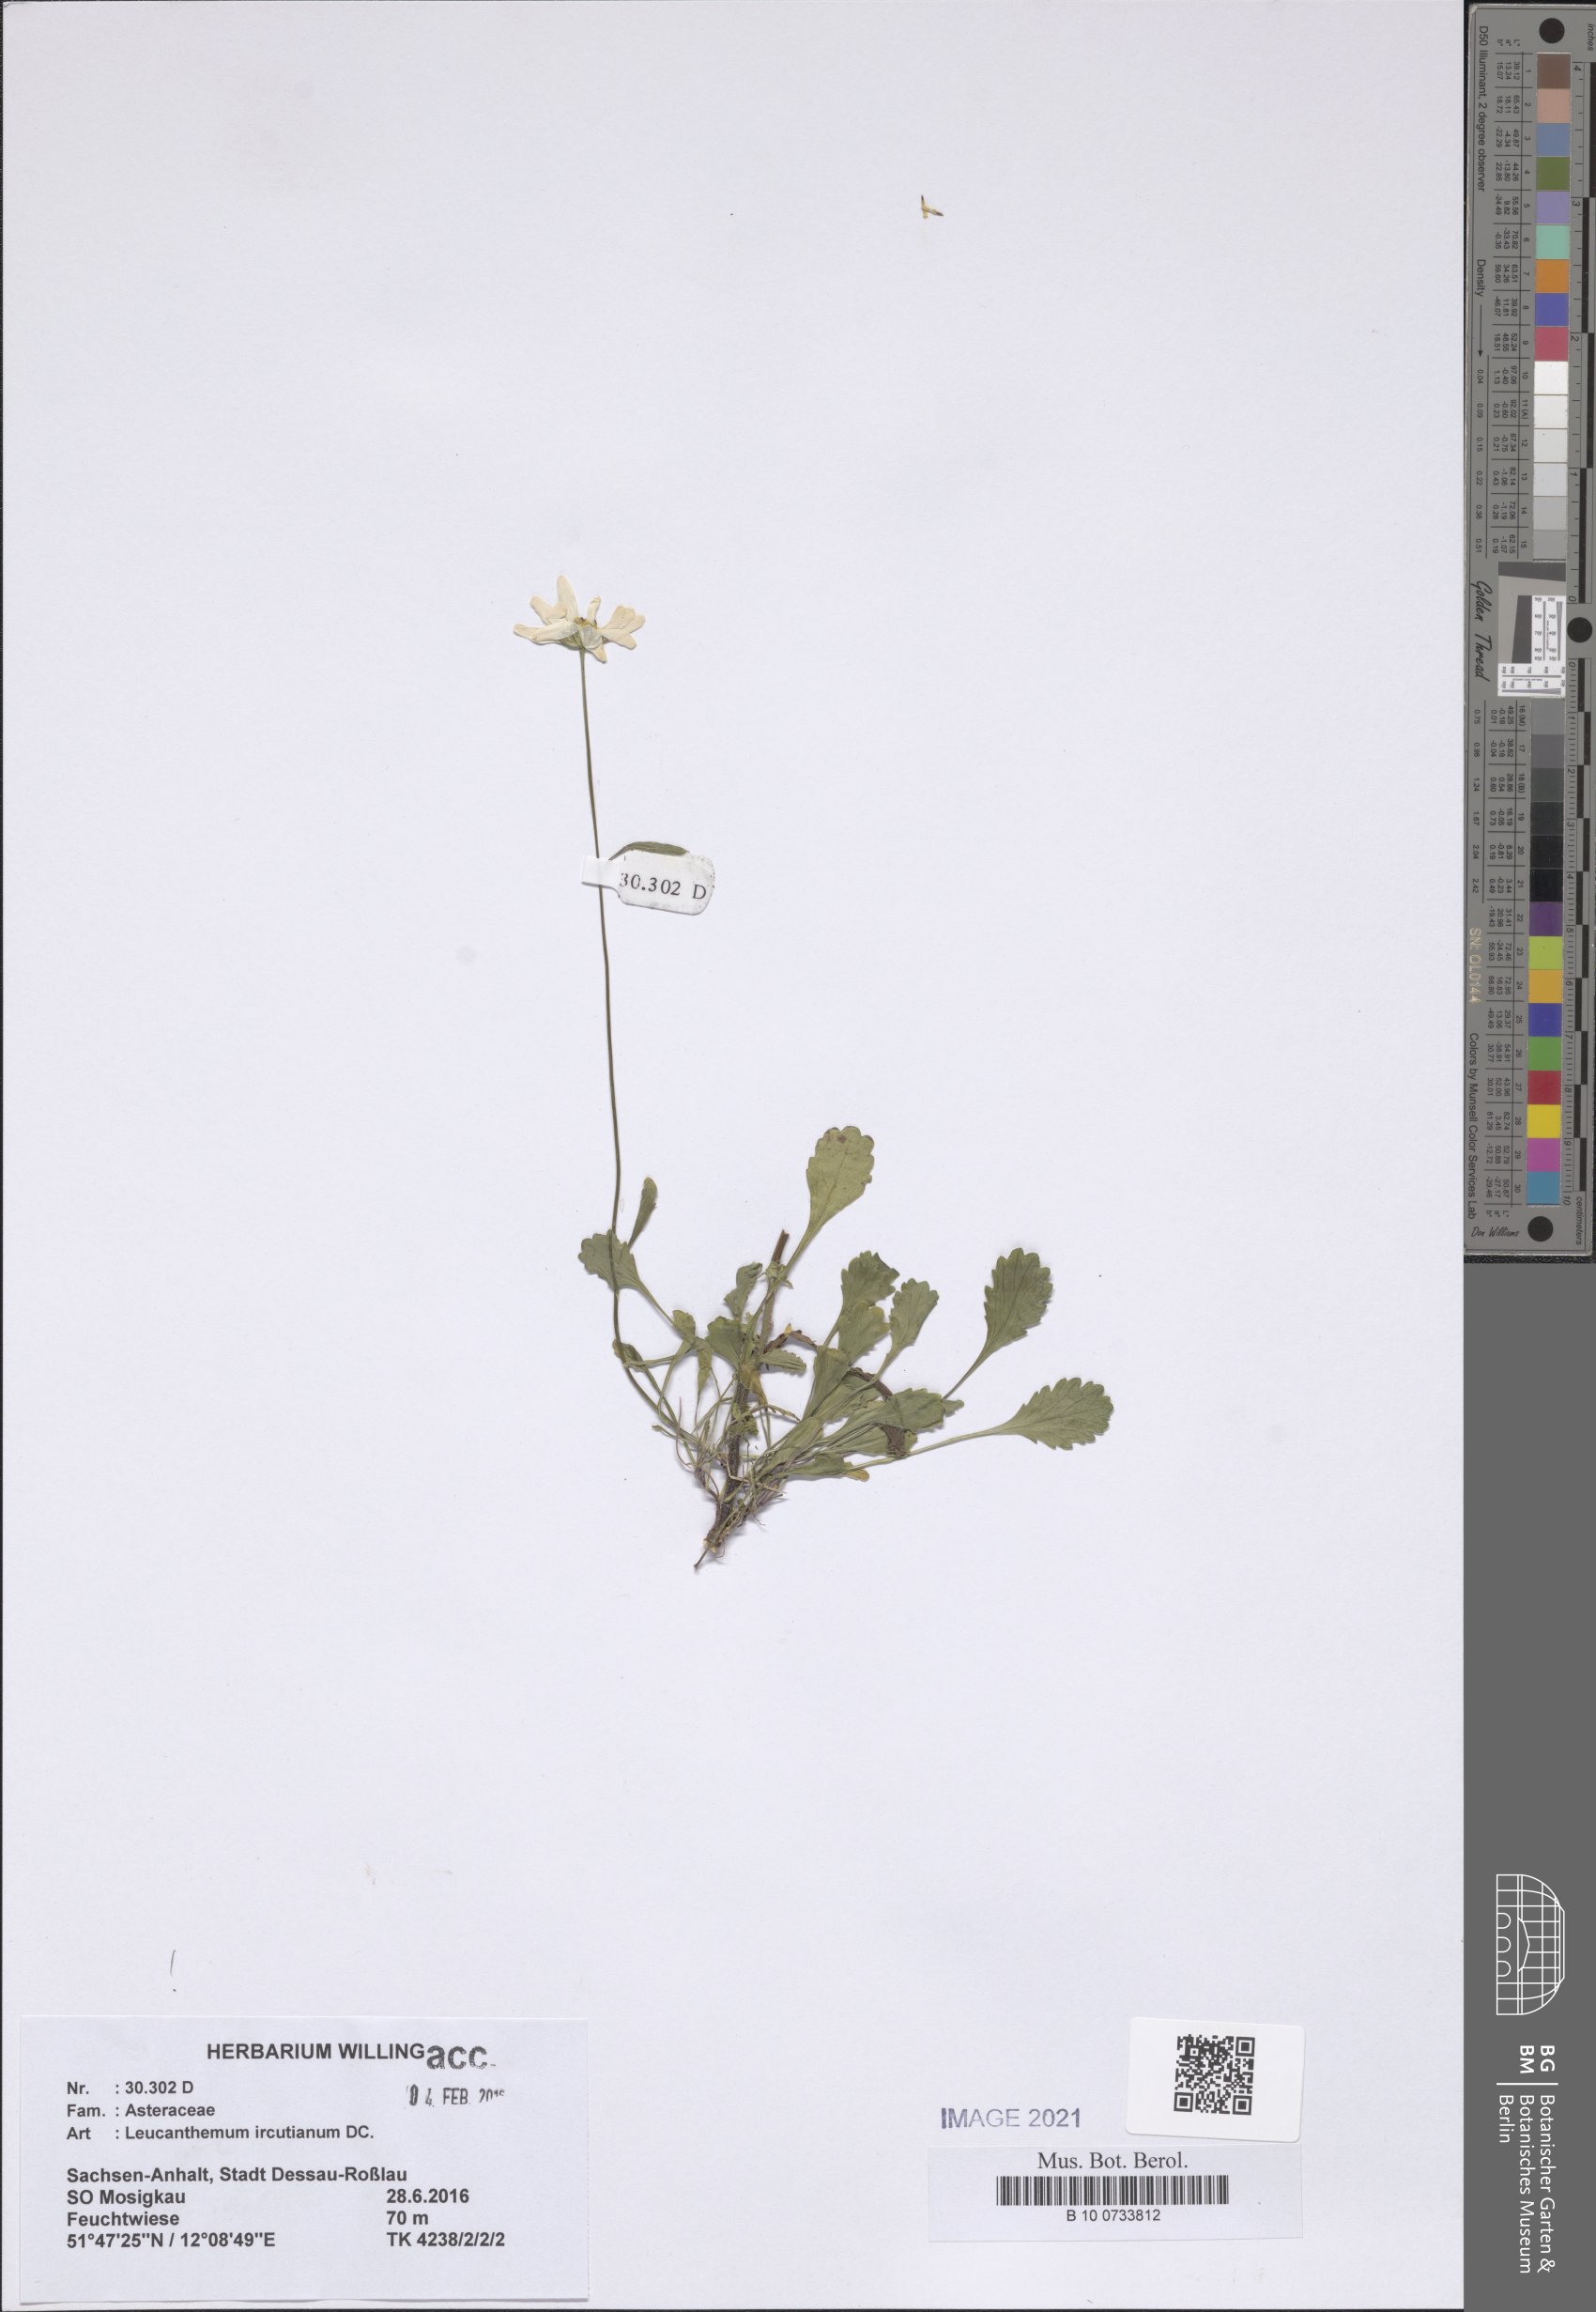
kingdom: Plantae
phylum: Tracheophyta
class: Magnoliopsida
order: Asterales
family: Asteraceae
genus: Leucanthemum
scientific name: Leucanthemum ircutianum
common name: Daisy
